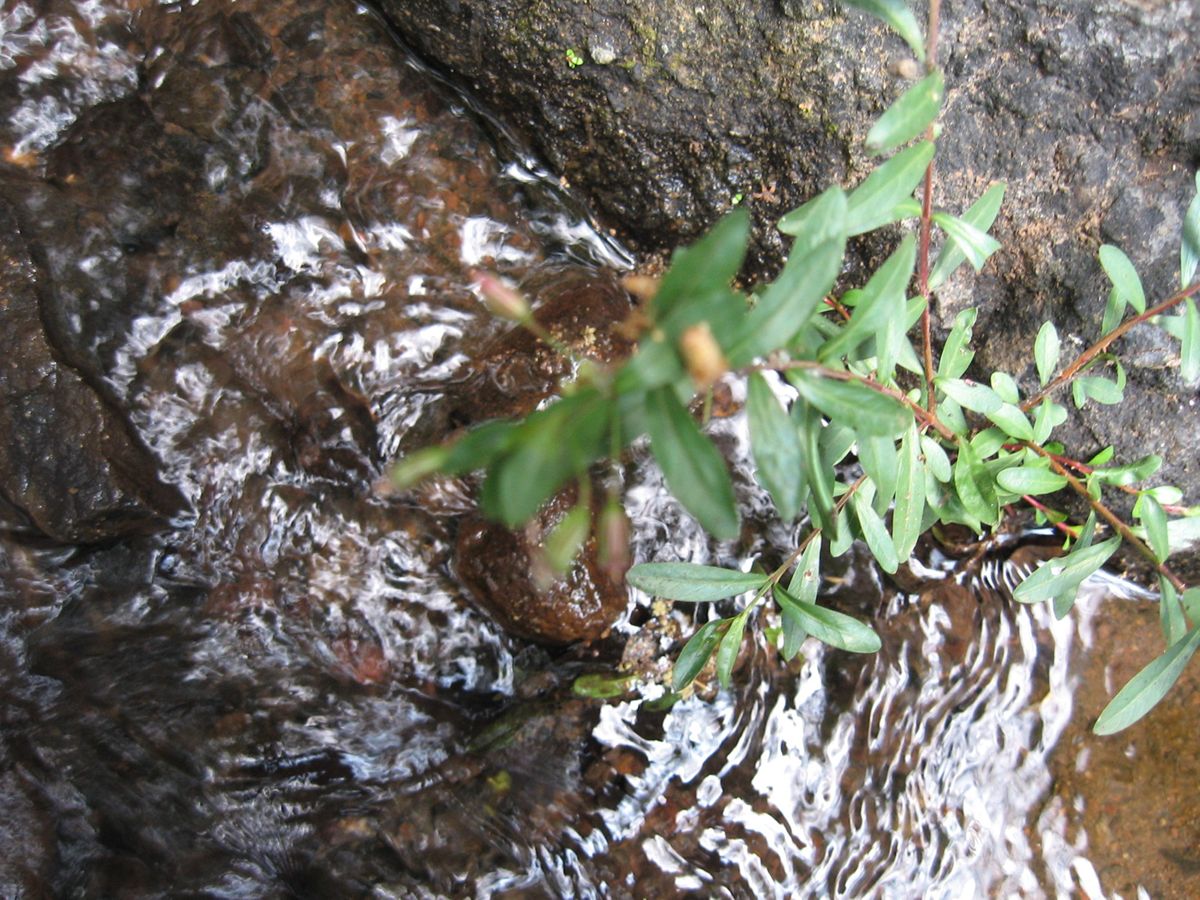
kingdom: Plantae
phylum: Tracheophyta
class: Magnoliopsida
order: Myrtales
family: Lythraceae
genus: Cuphea
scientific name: Cuphea utriculosa
